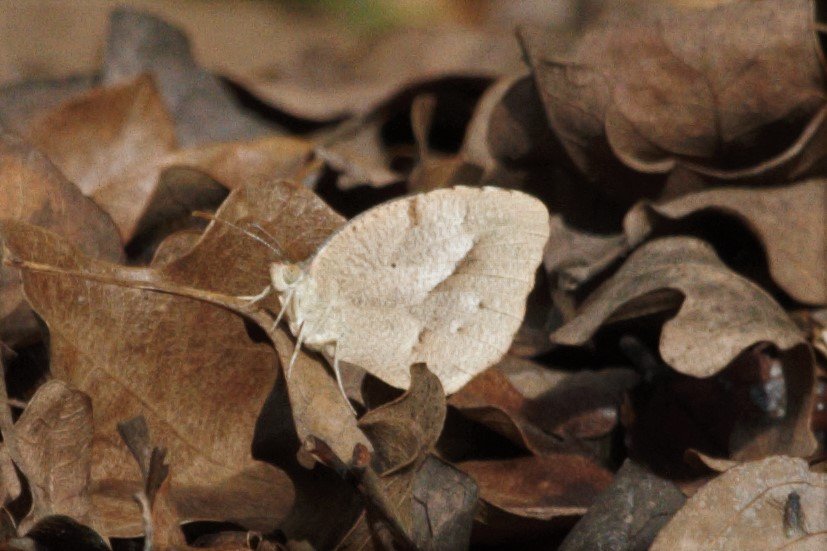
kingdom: Animalia
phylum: Arthropoda
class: Insecta
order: Lepidoptera
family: Pieridae
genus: Abaeis
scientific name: Abaeis nicippe
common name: Sleepy Orange
